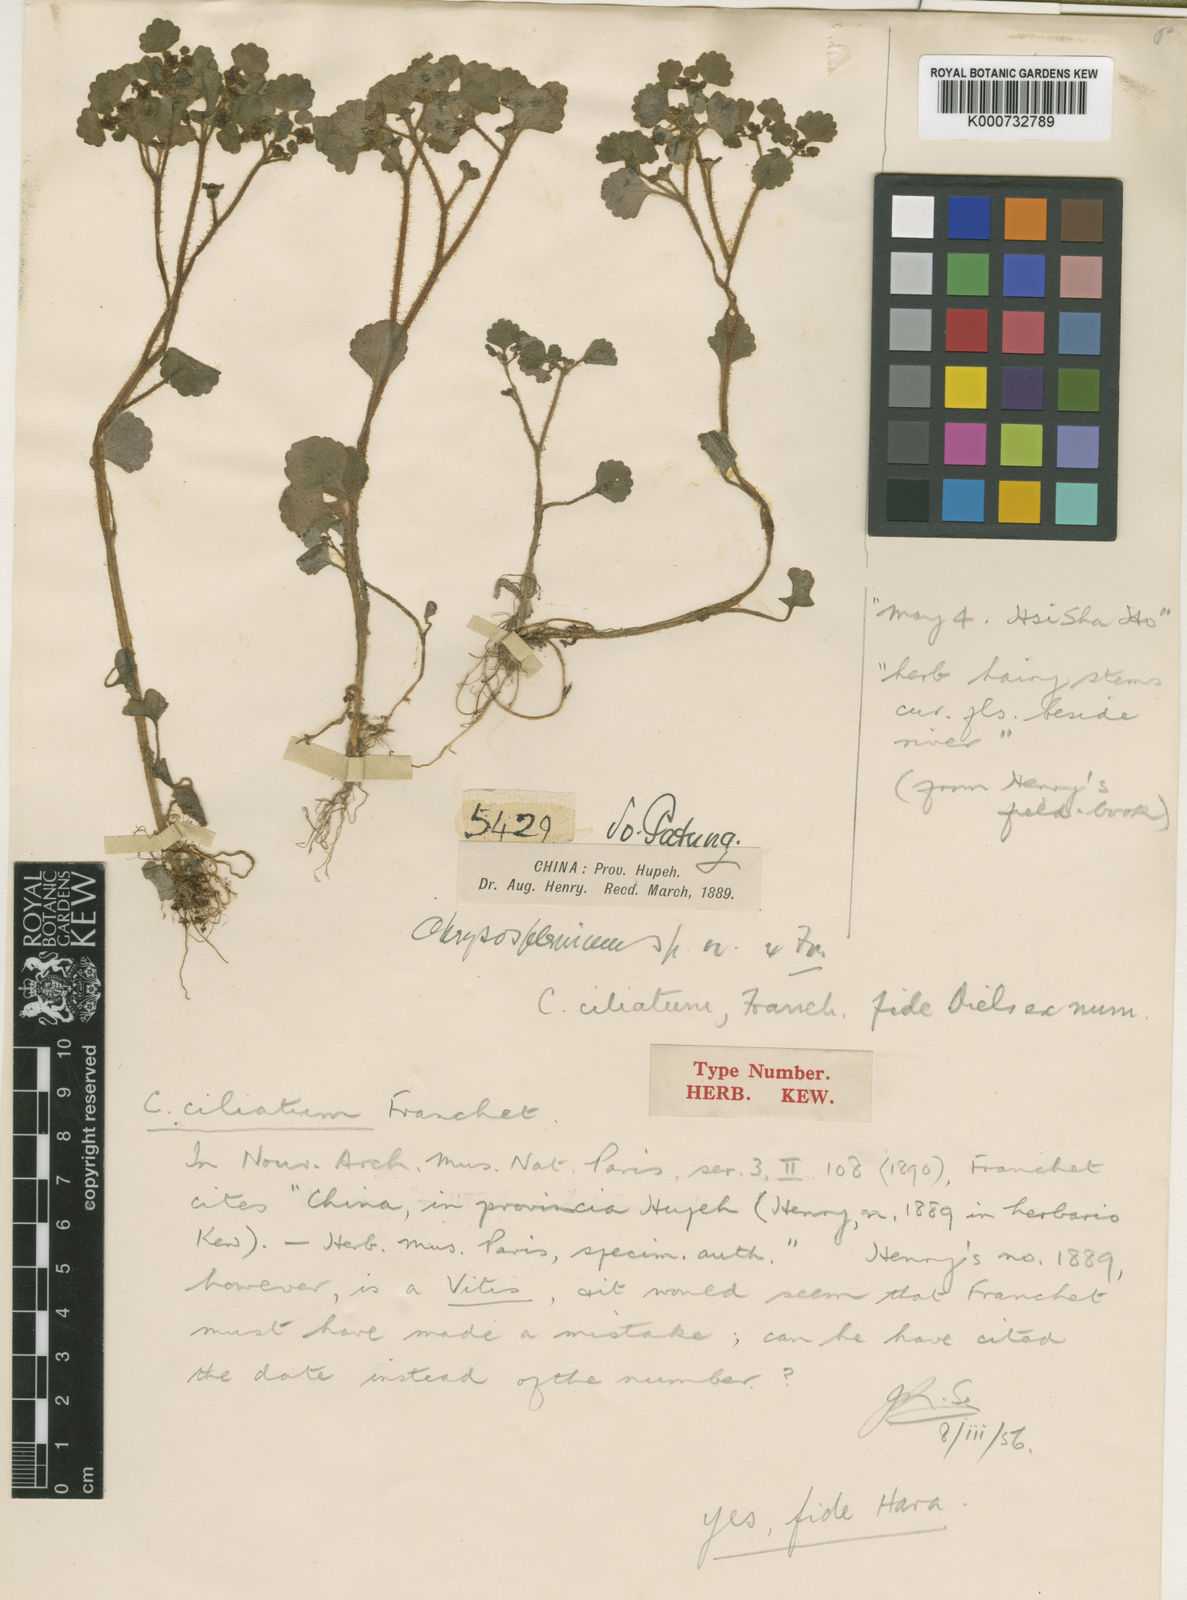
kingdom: Plantae
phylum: Tracheophyta
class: Magnoliopsida
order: Saxifragales
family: Saxifragaceae
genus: Chrysosplenium
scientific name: Chrysosplenium lanuginosum
